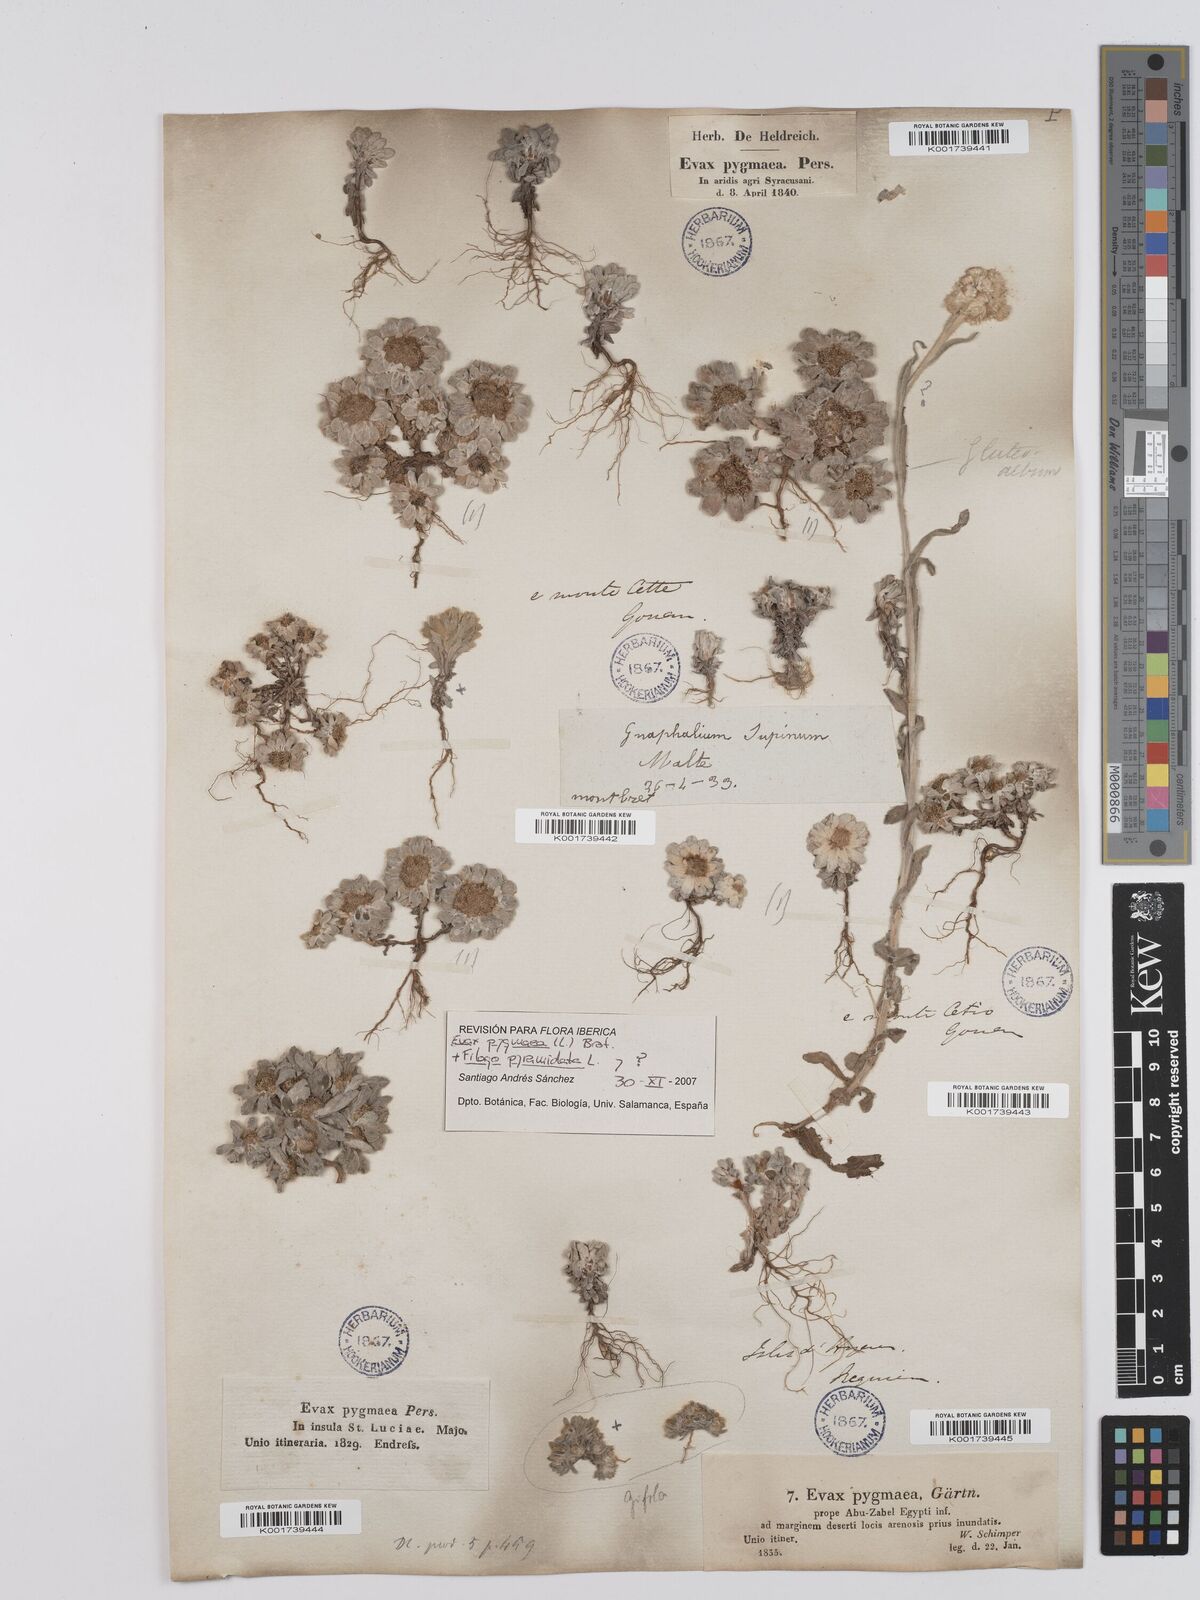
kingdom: Plantae
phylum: Tracheophyta
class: Magnoliopsida
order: Asterales
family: Asteraceae
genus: Filago
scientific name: Filago pygmaea
